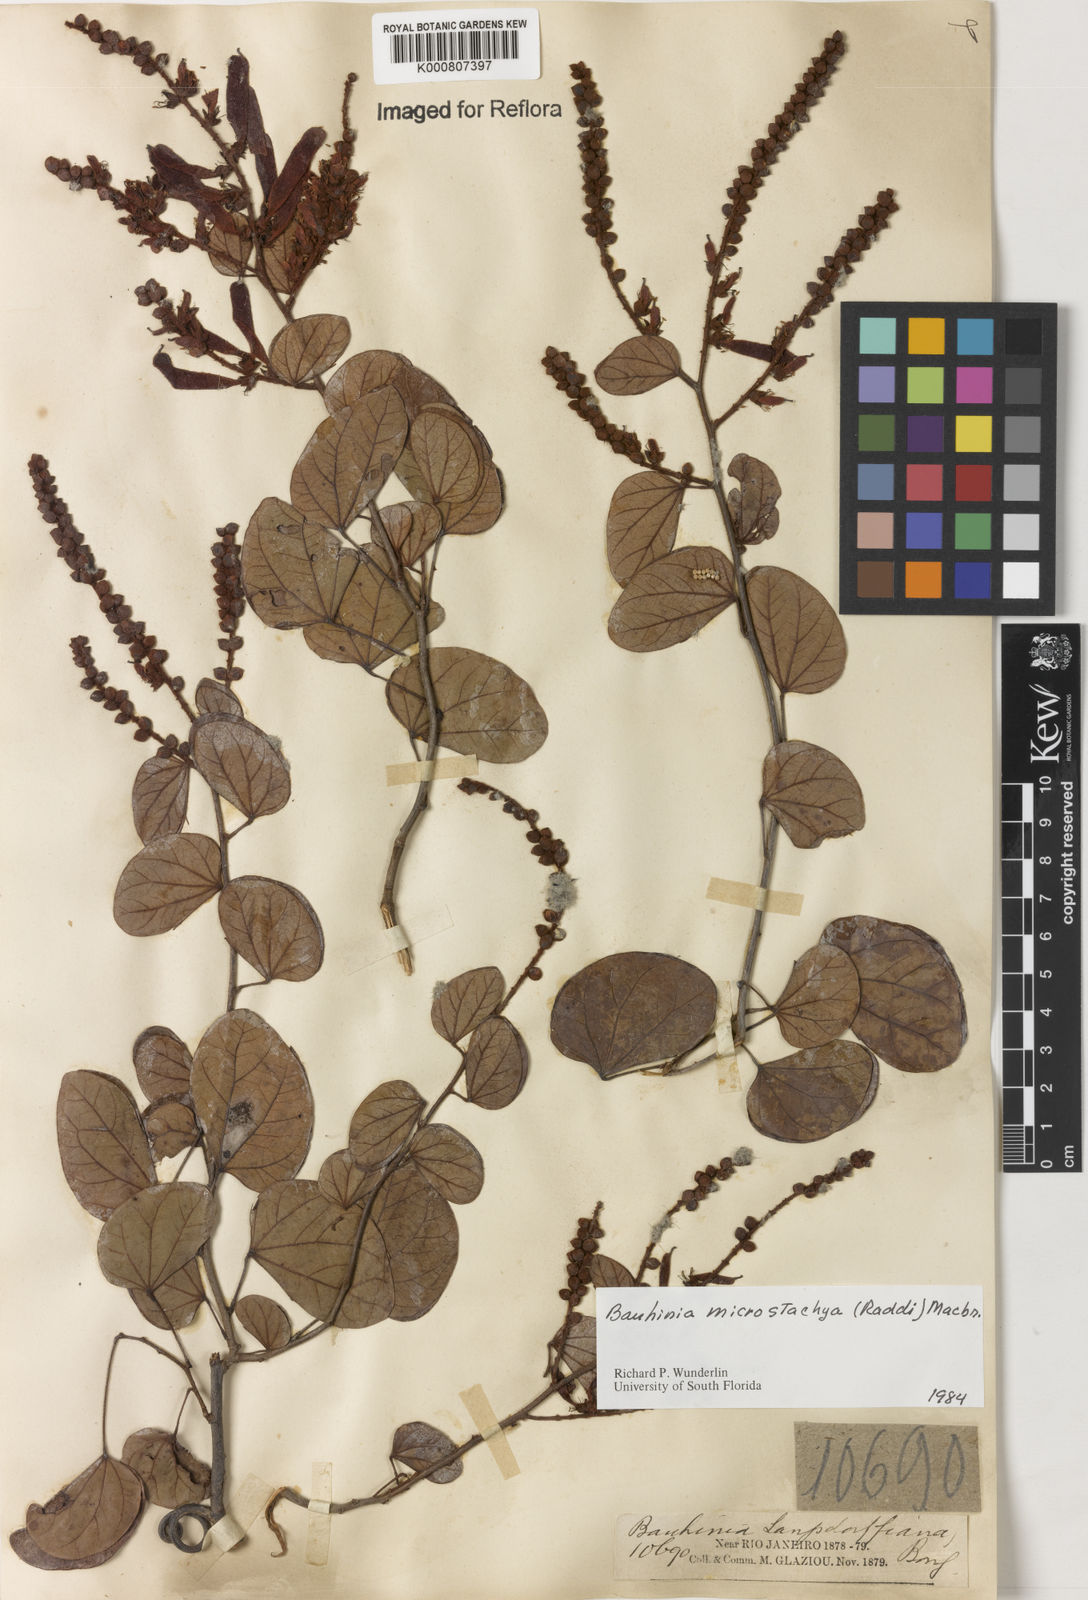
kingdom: Plantae
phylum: Tracheophyta
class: Magnoliopsida
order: Fabales
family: Fabaceae
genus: Schnella
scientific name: Schnella microstachya
